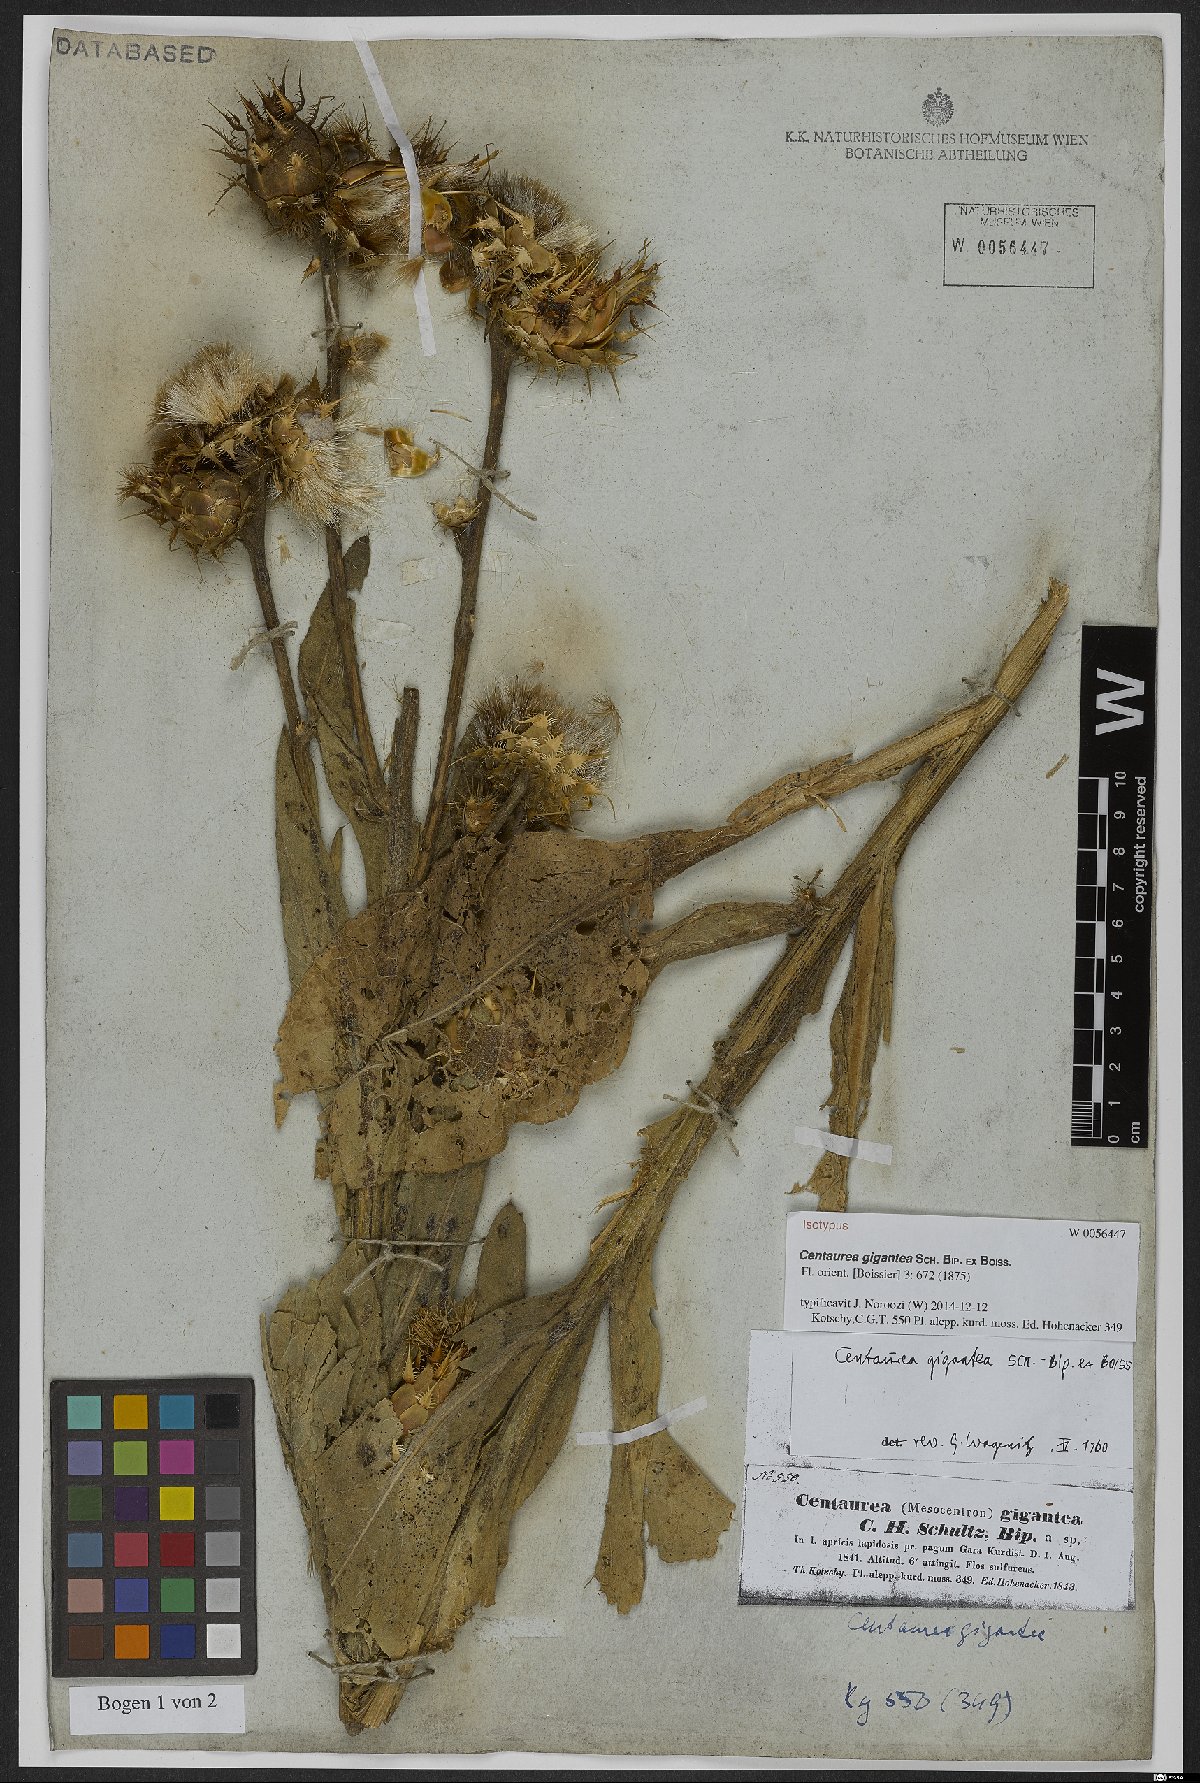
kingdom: Plantae
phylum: Tracheophyta
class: Magnoliopsida
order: Asterales
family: Asteraceae
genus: Centaurea
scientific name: Centaurea gigantea
